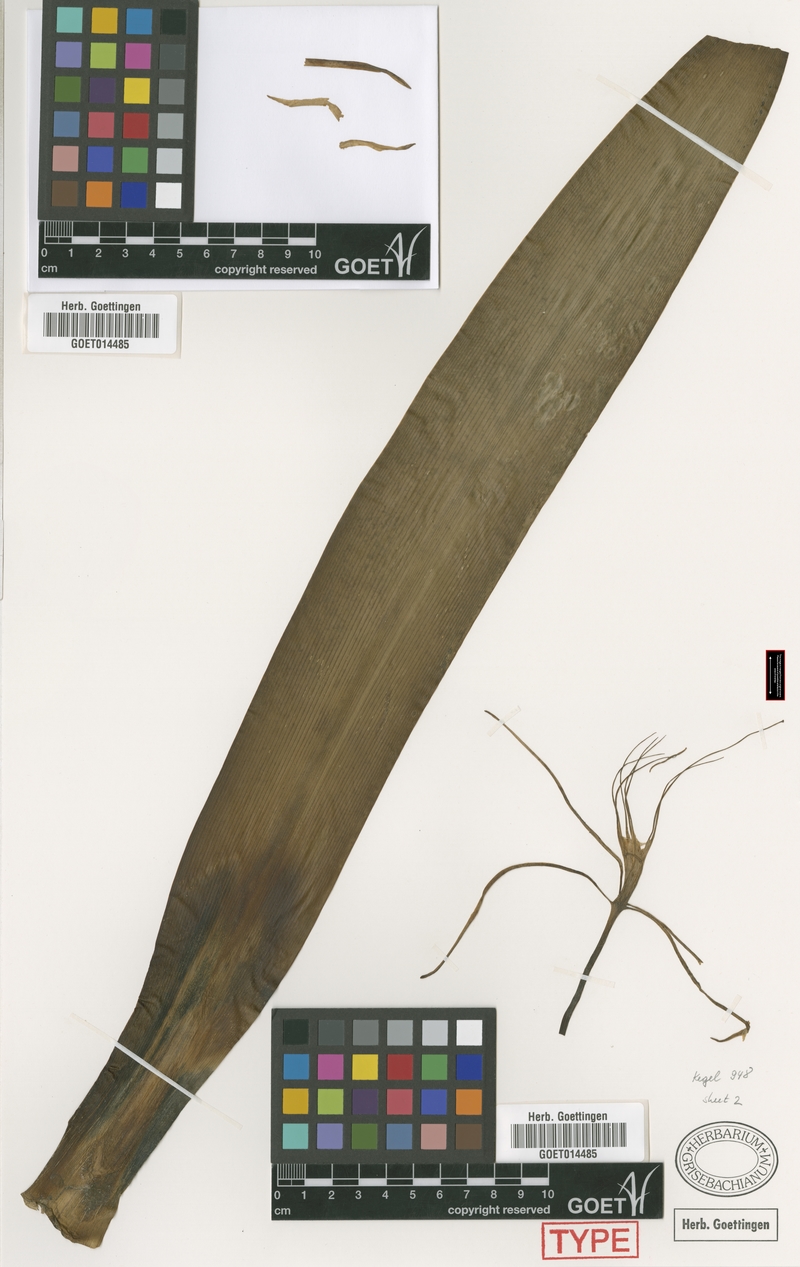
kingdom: Plantae
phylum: Tracheophyta
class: Liliopsida
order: Asparagales
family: Amaryllidaceae
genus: Hymenocallis
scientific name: Hymenocallis caribaea
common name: White-lily
